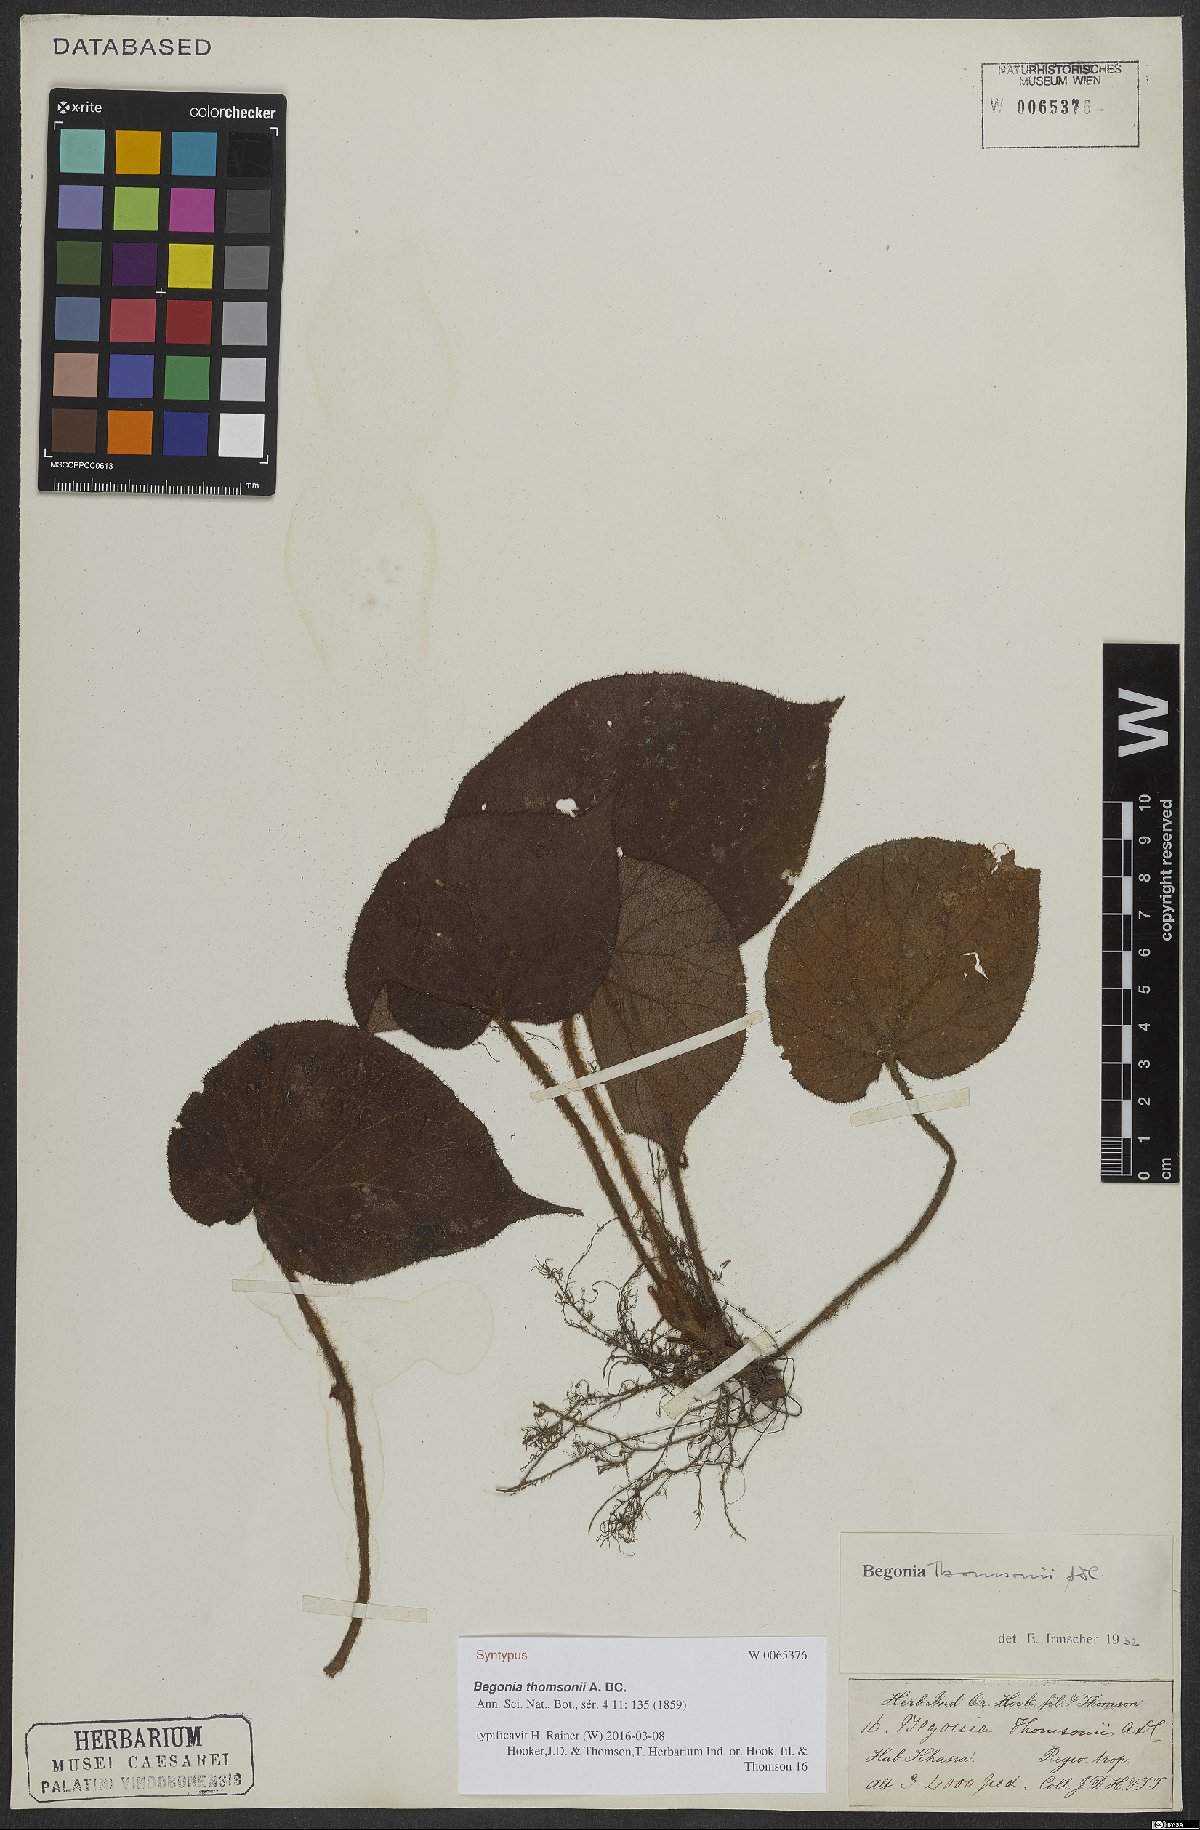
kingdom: Plantae
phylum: Tracheophyta
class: Magnoliopsida
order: Cucurbitales
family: Begoniaceae
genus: Begonia
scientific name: Begonia thomsonii
